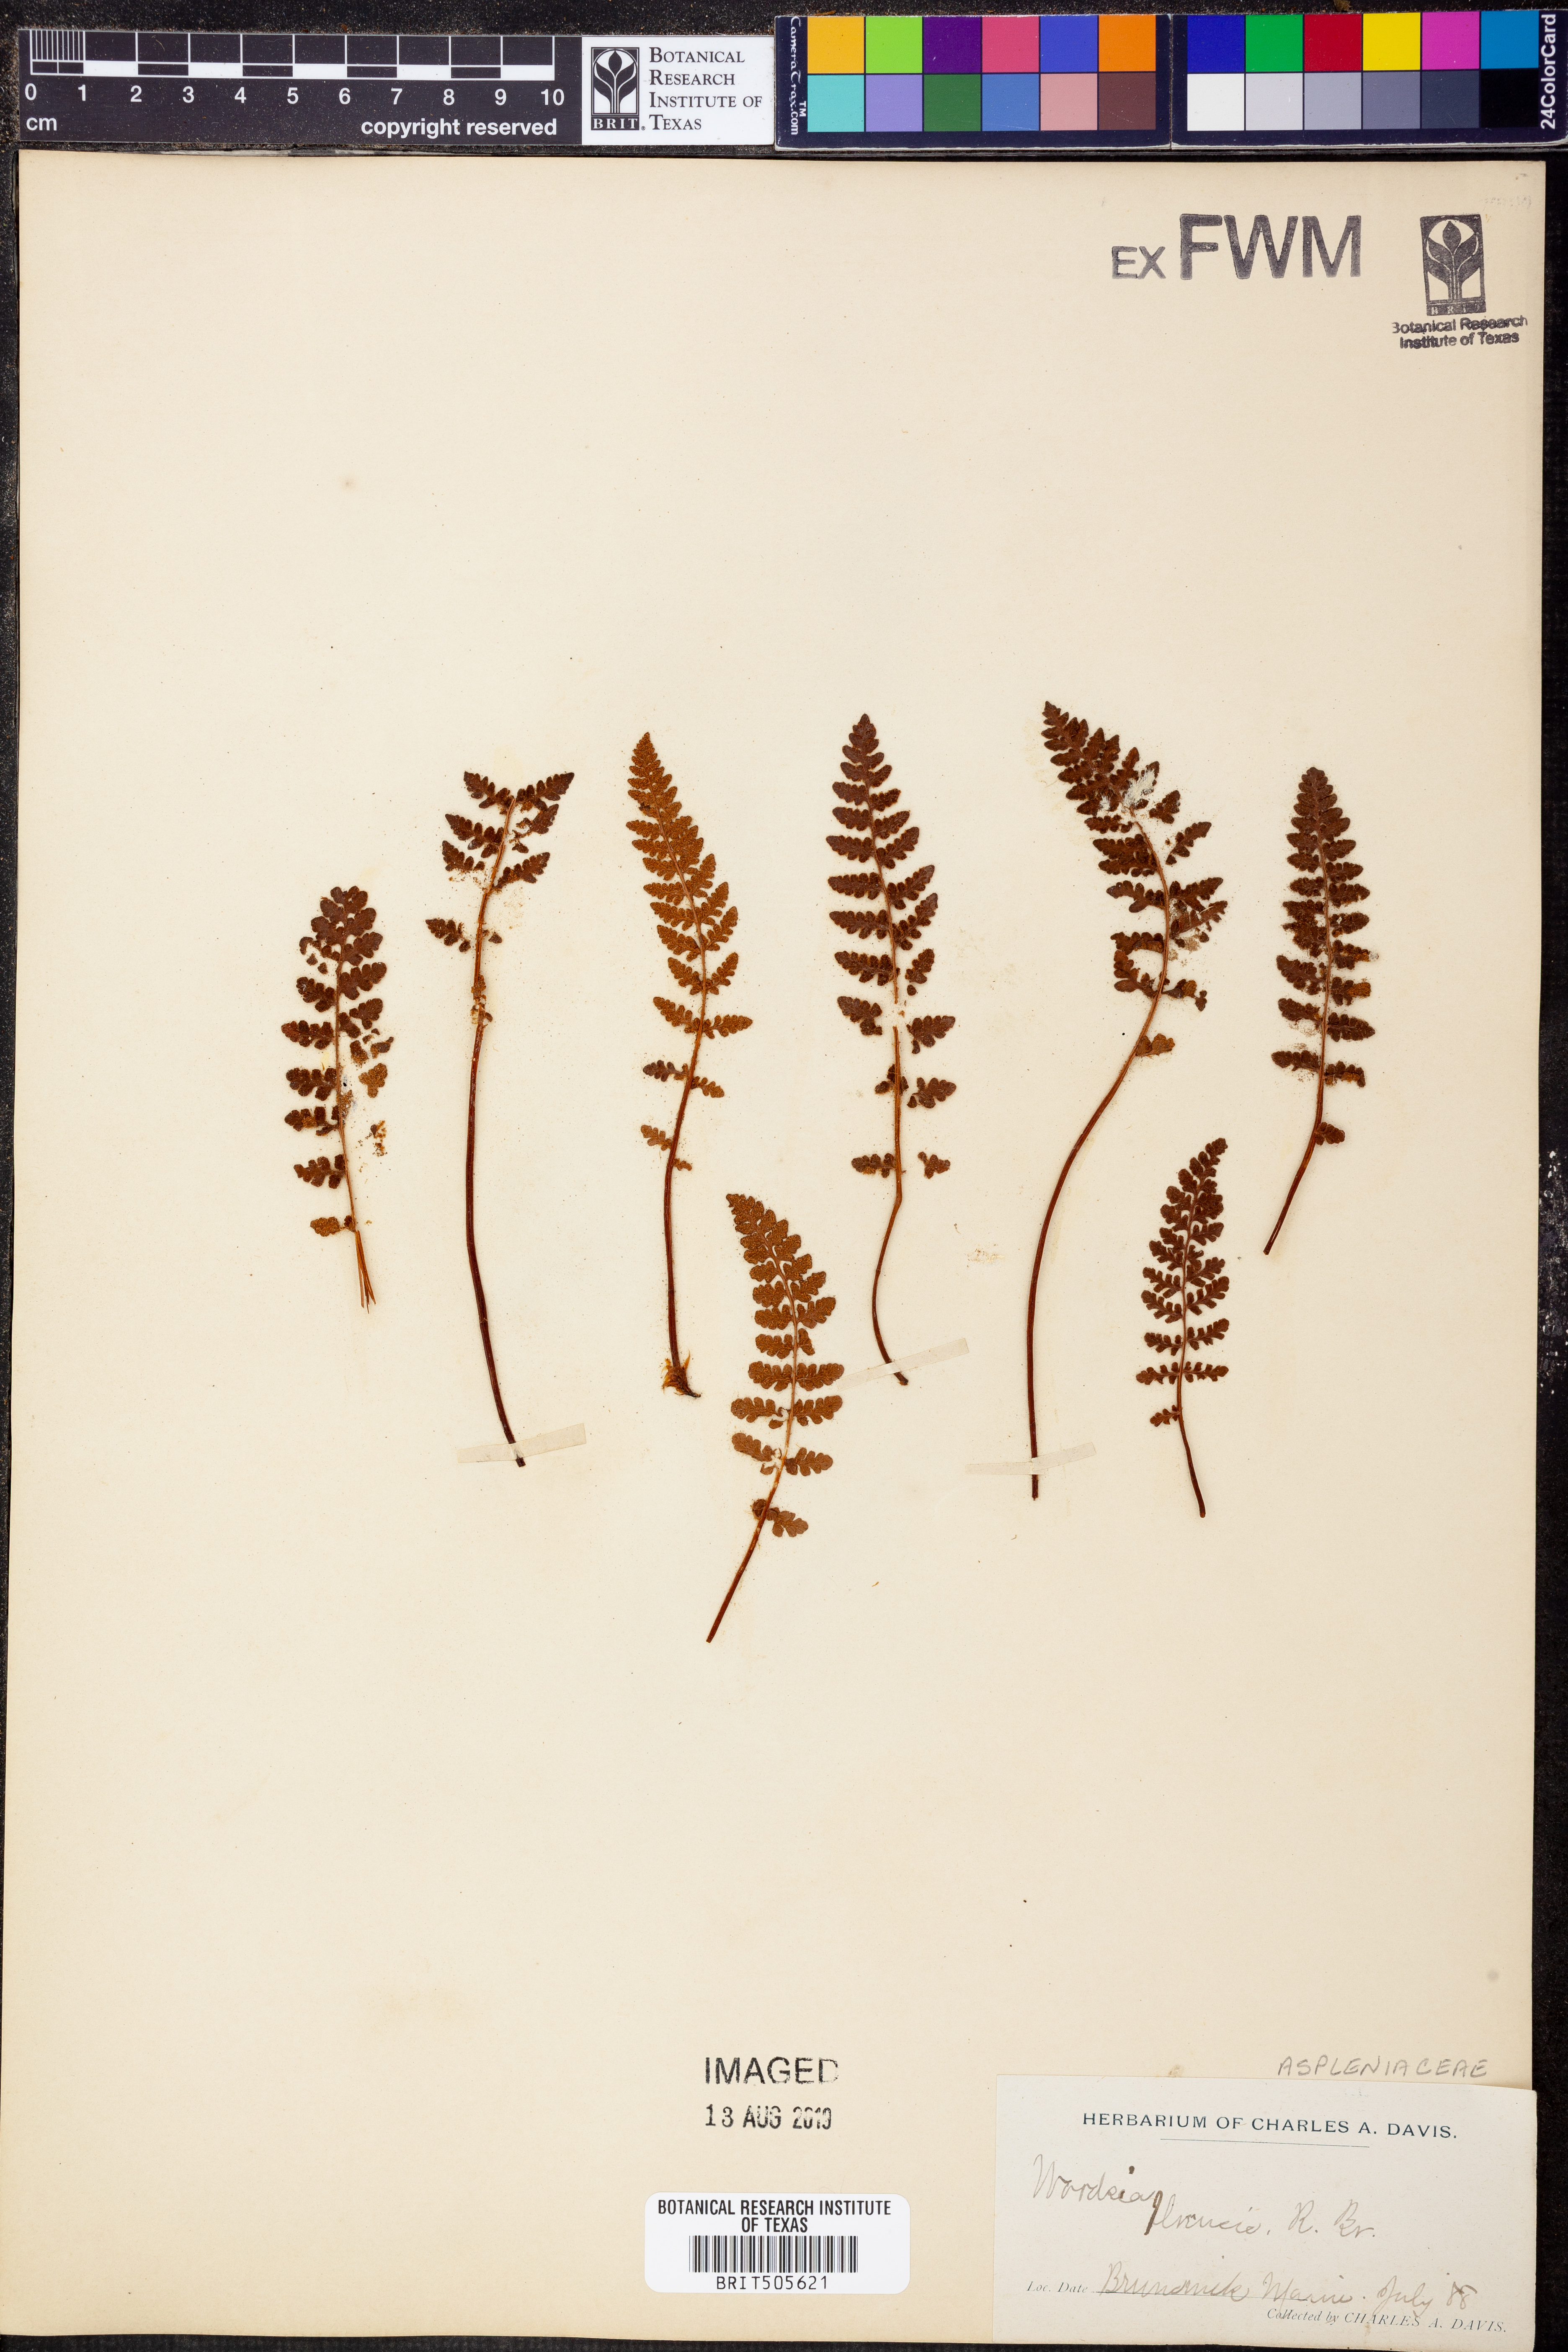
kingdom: Plantae
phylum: Tracheophyta
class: Polypodiopsida
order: Polypodiales
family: Woodsiaceae
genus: Woodsia
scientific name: Woodsia ilvensis
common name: Fragrant woodsia
